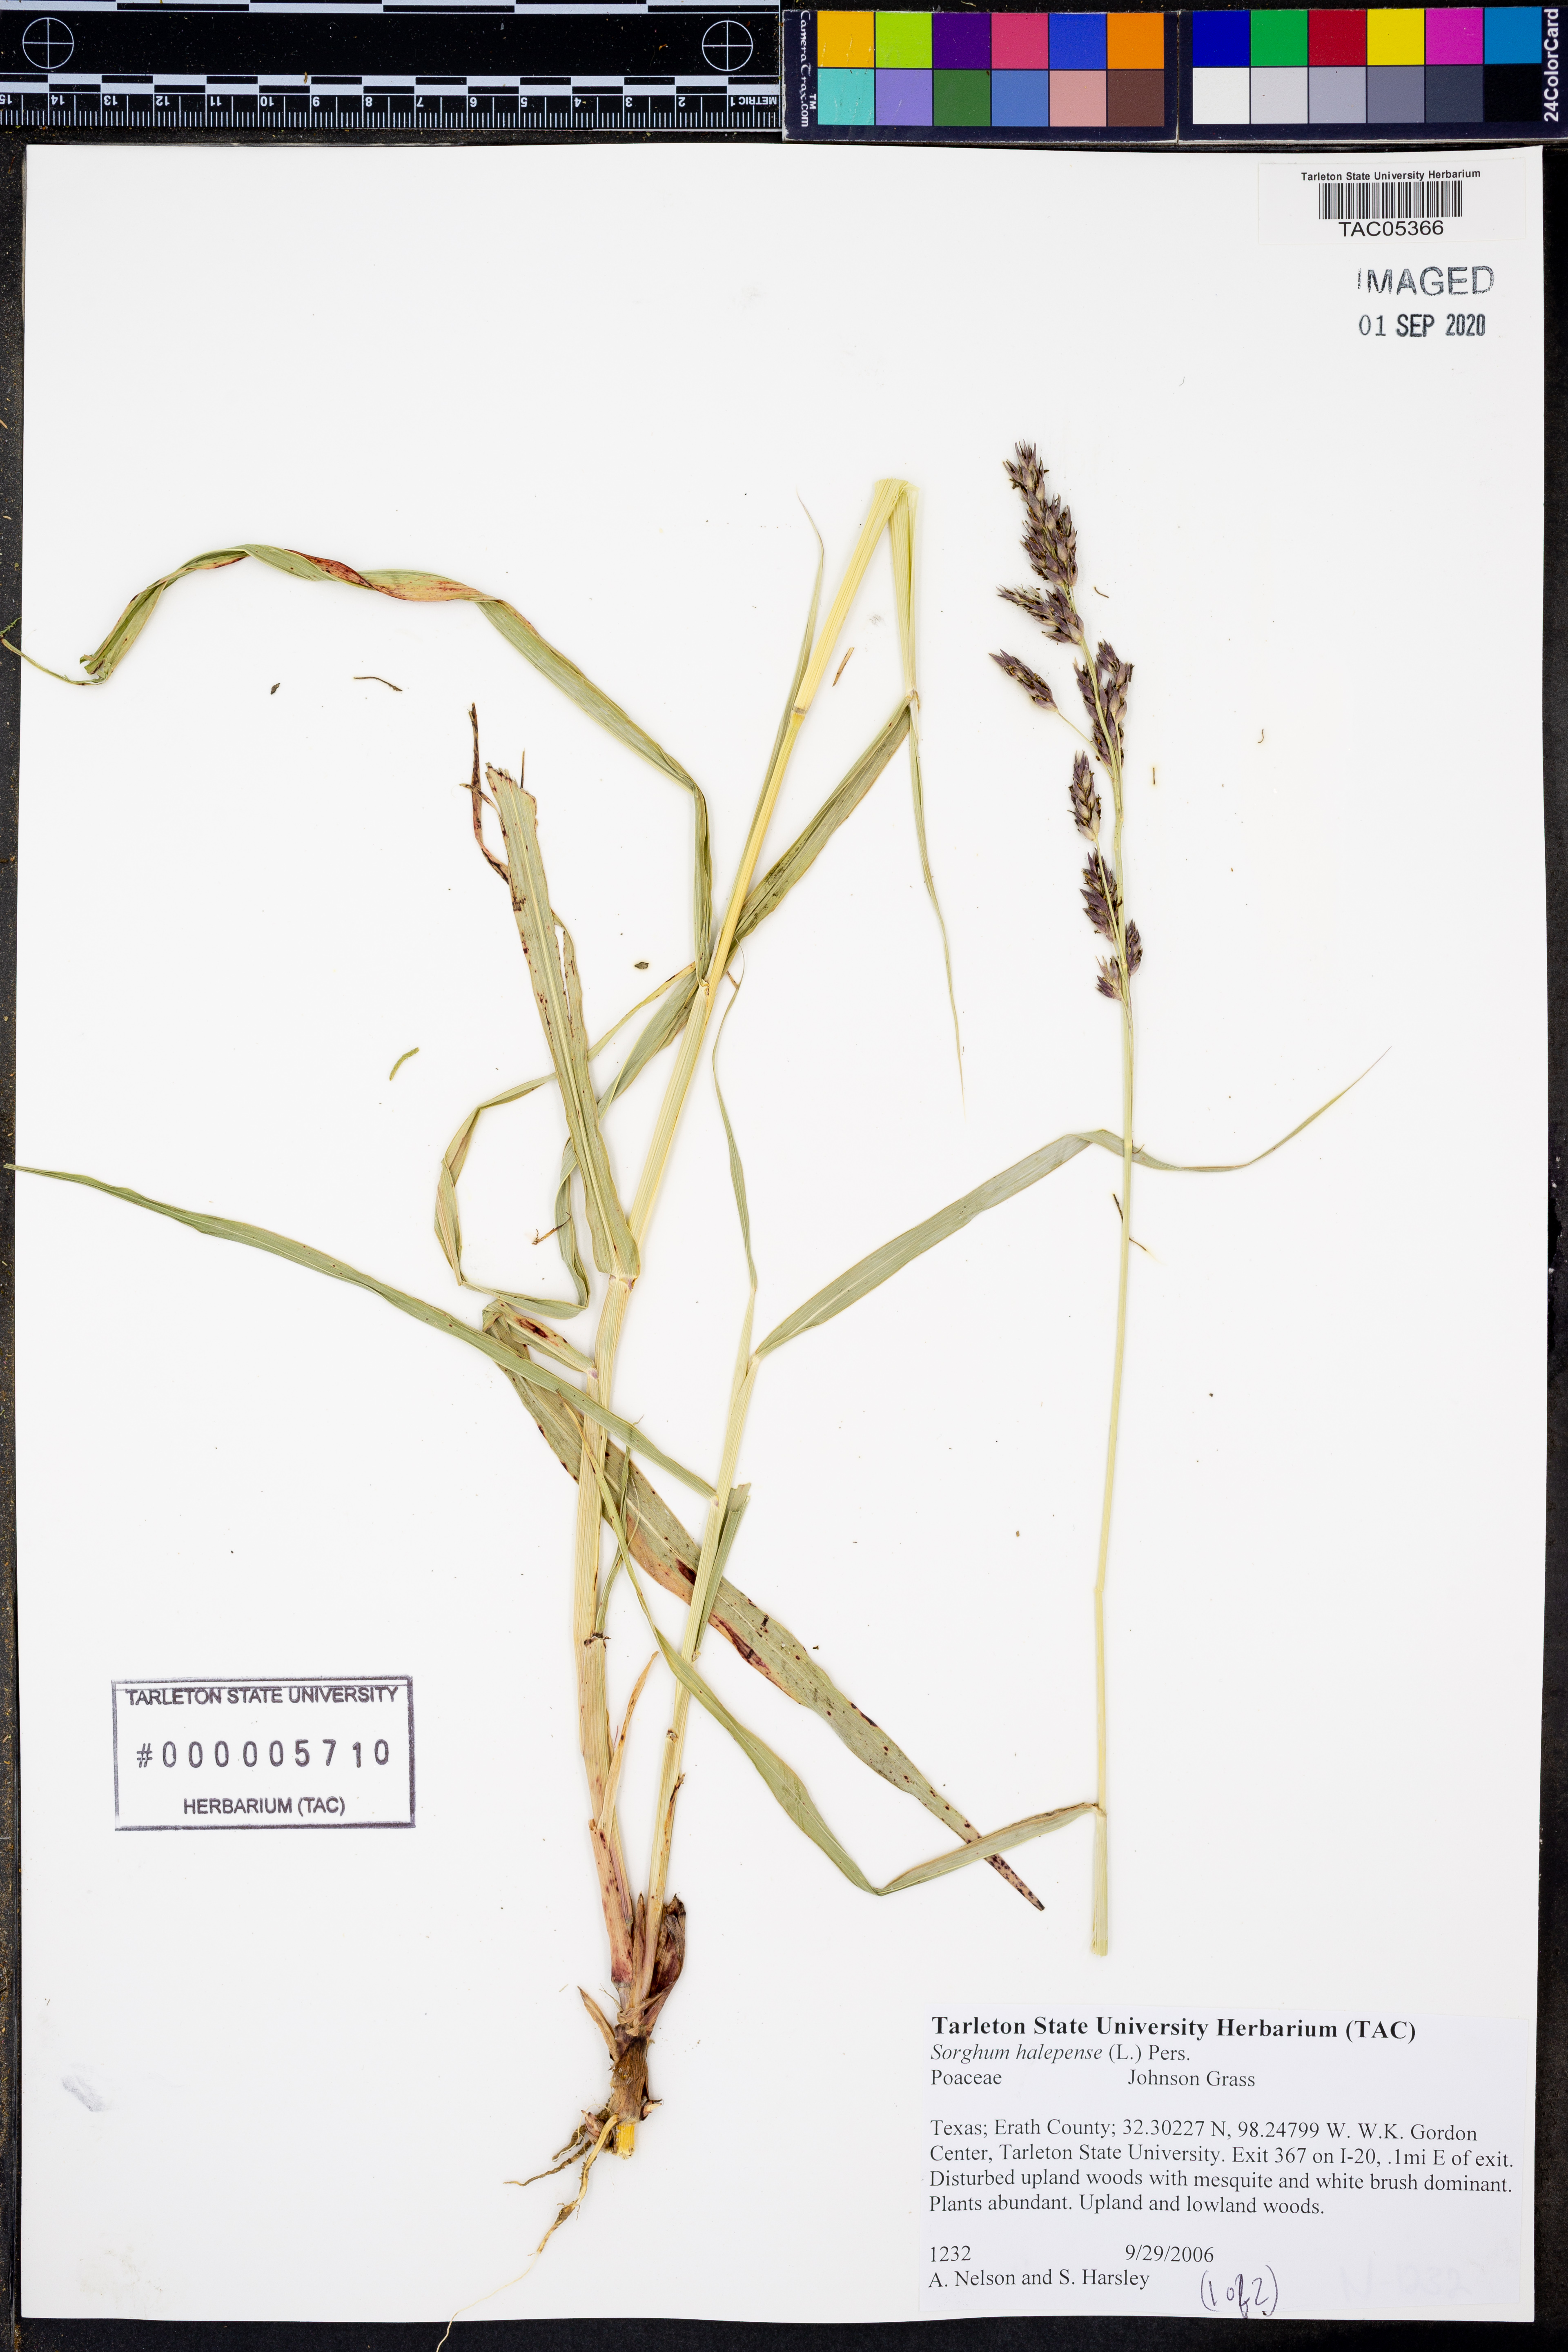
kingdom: Plantae
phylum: Tracheophyta
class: Liliopsida
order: Poales
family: Poaceae
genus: Sorghum
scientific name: Sorghum halepense
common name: Johnson-grass
